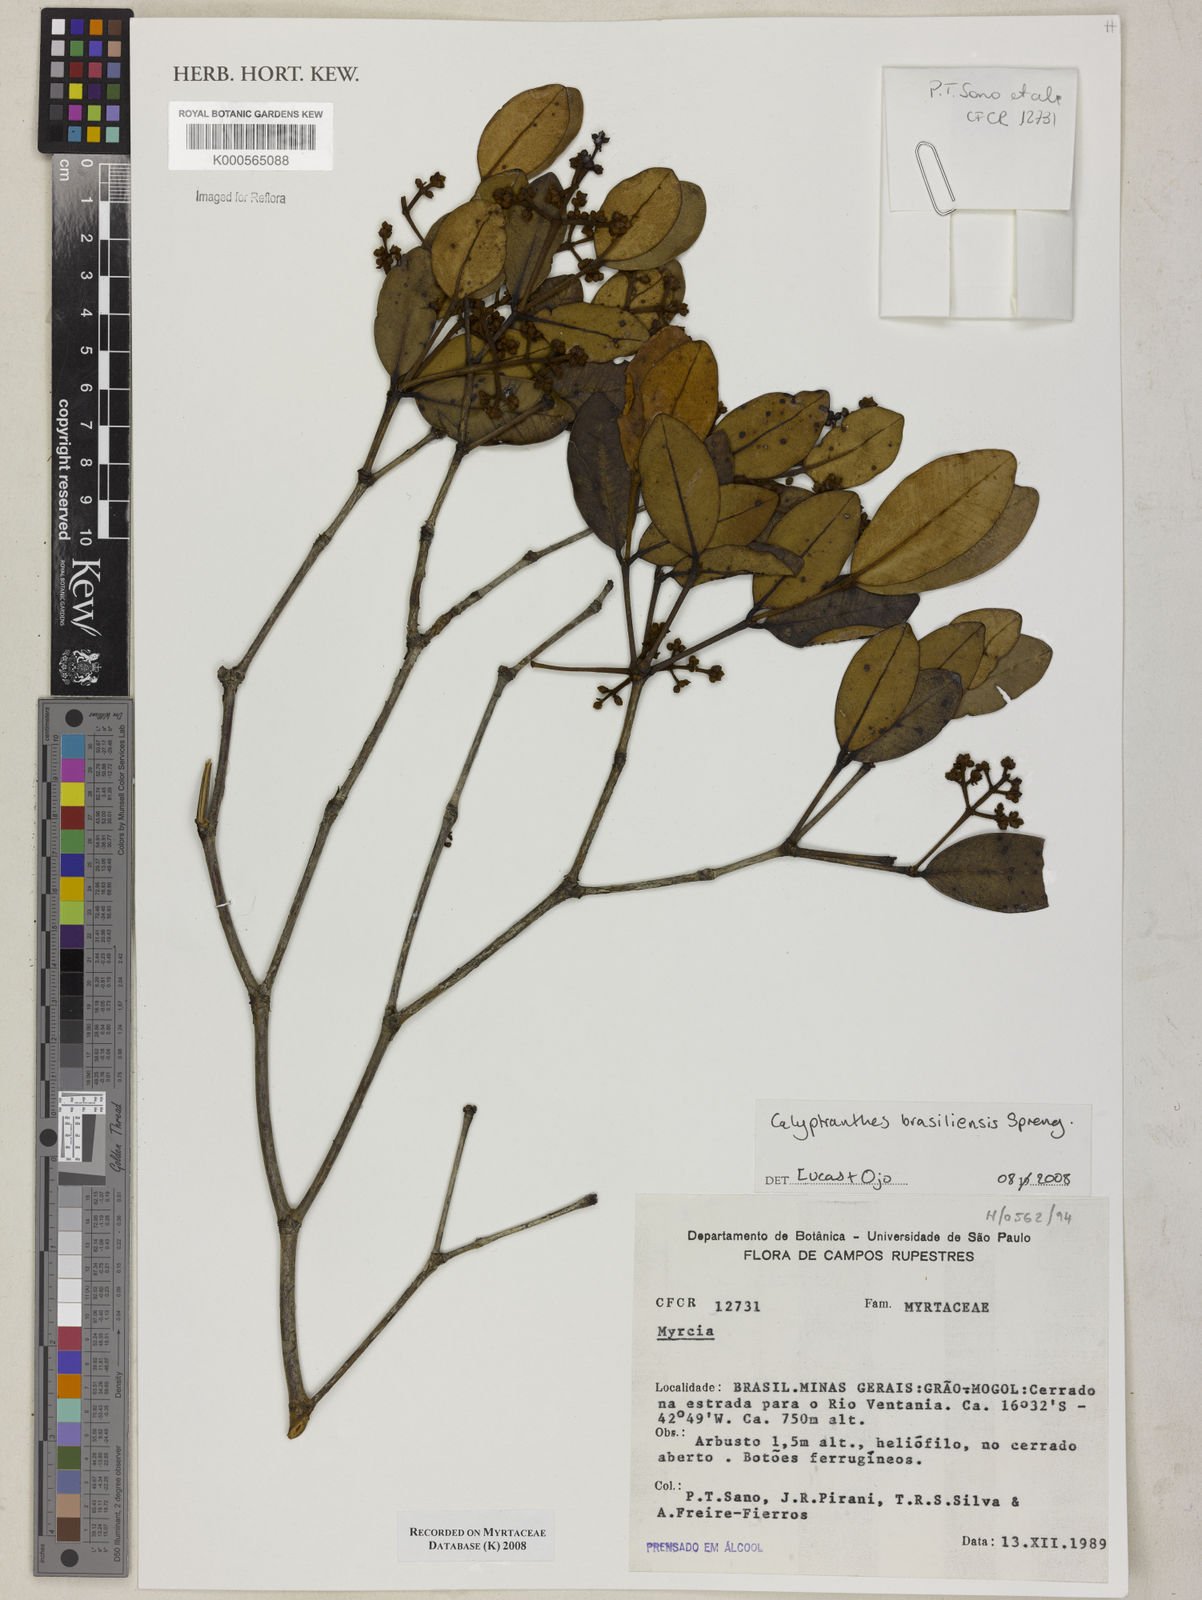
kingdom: Plantae
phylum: Tracheophyta
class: Magnoliopsida
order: Myrtales
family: Myrtaceae
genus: Myrcia
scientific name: Myrcia neobrasiliensis
